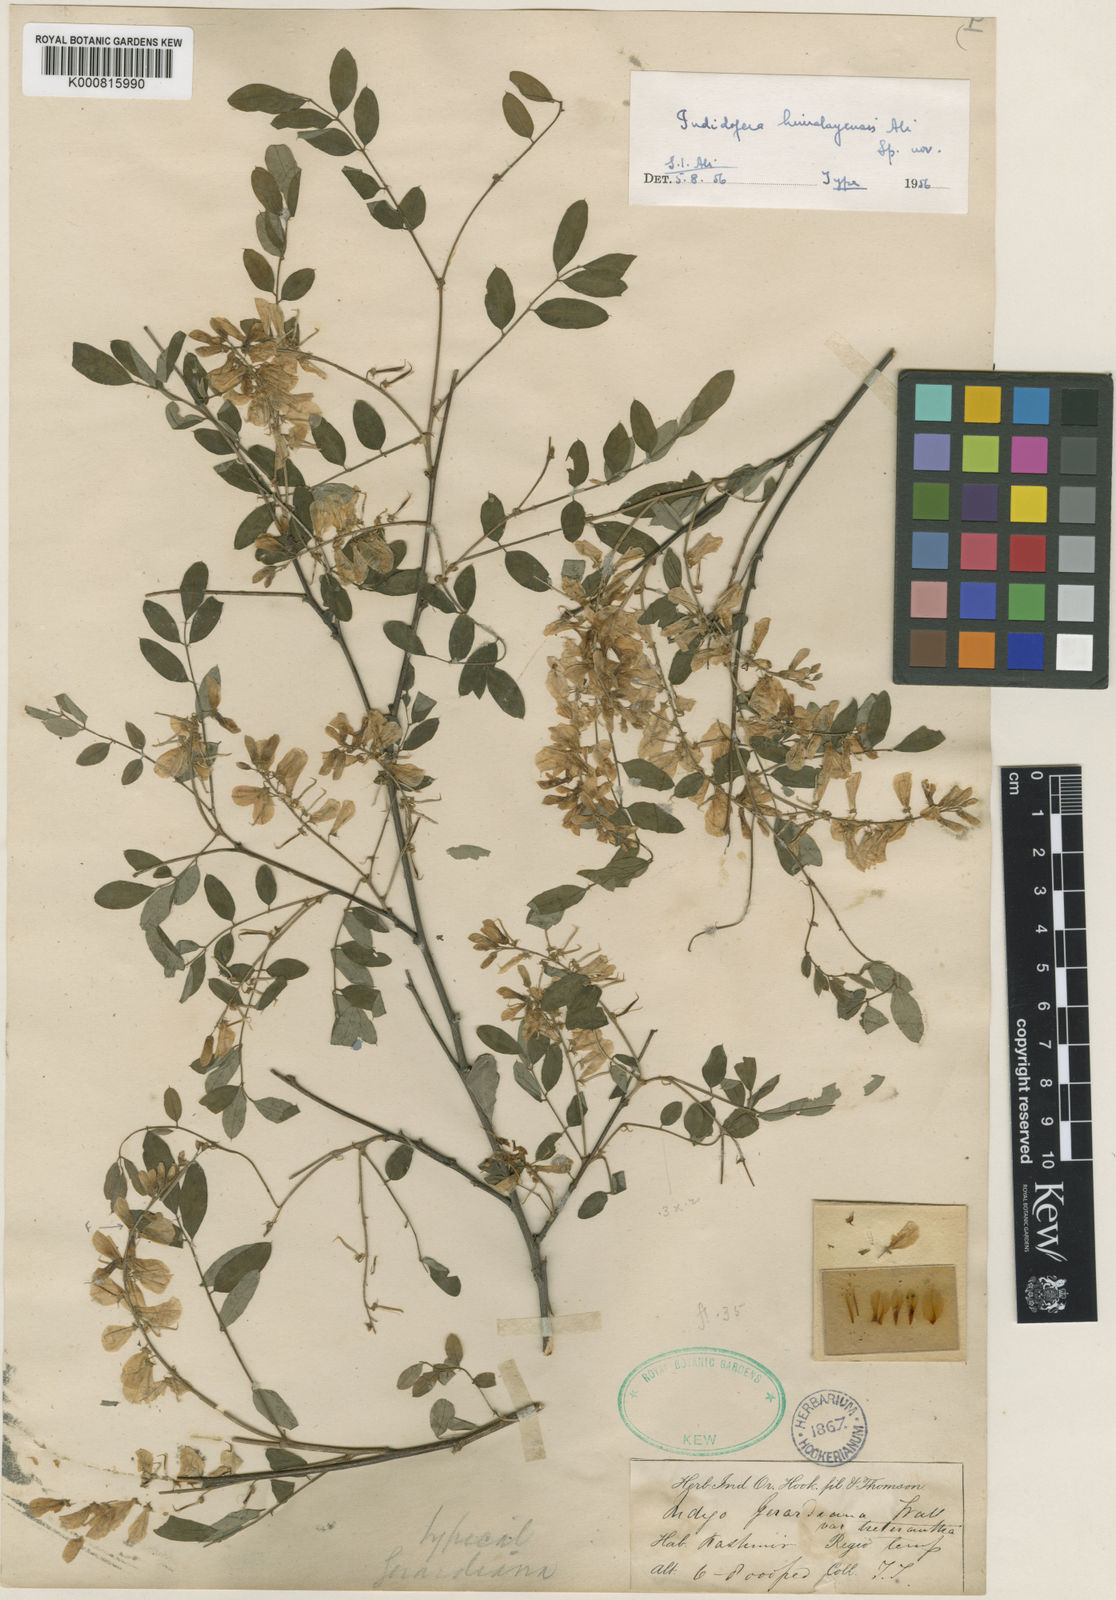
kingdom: Plantae
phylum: Tracheophyta
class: Magnoliopsida
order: Fabales
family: Fabaceae
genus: Indigofera
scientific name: Indigofera himalayensis
